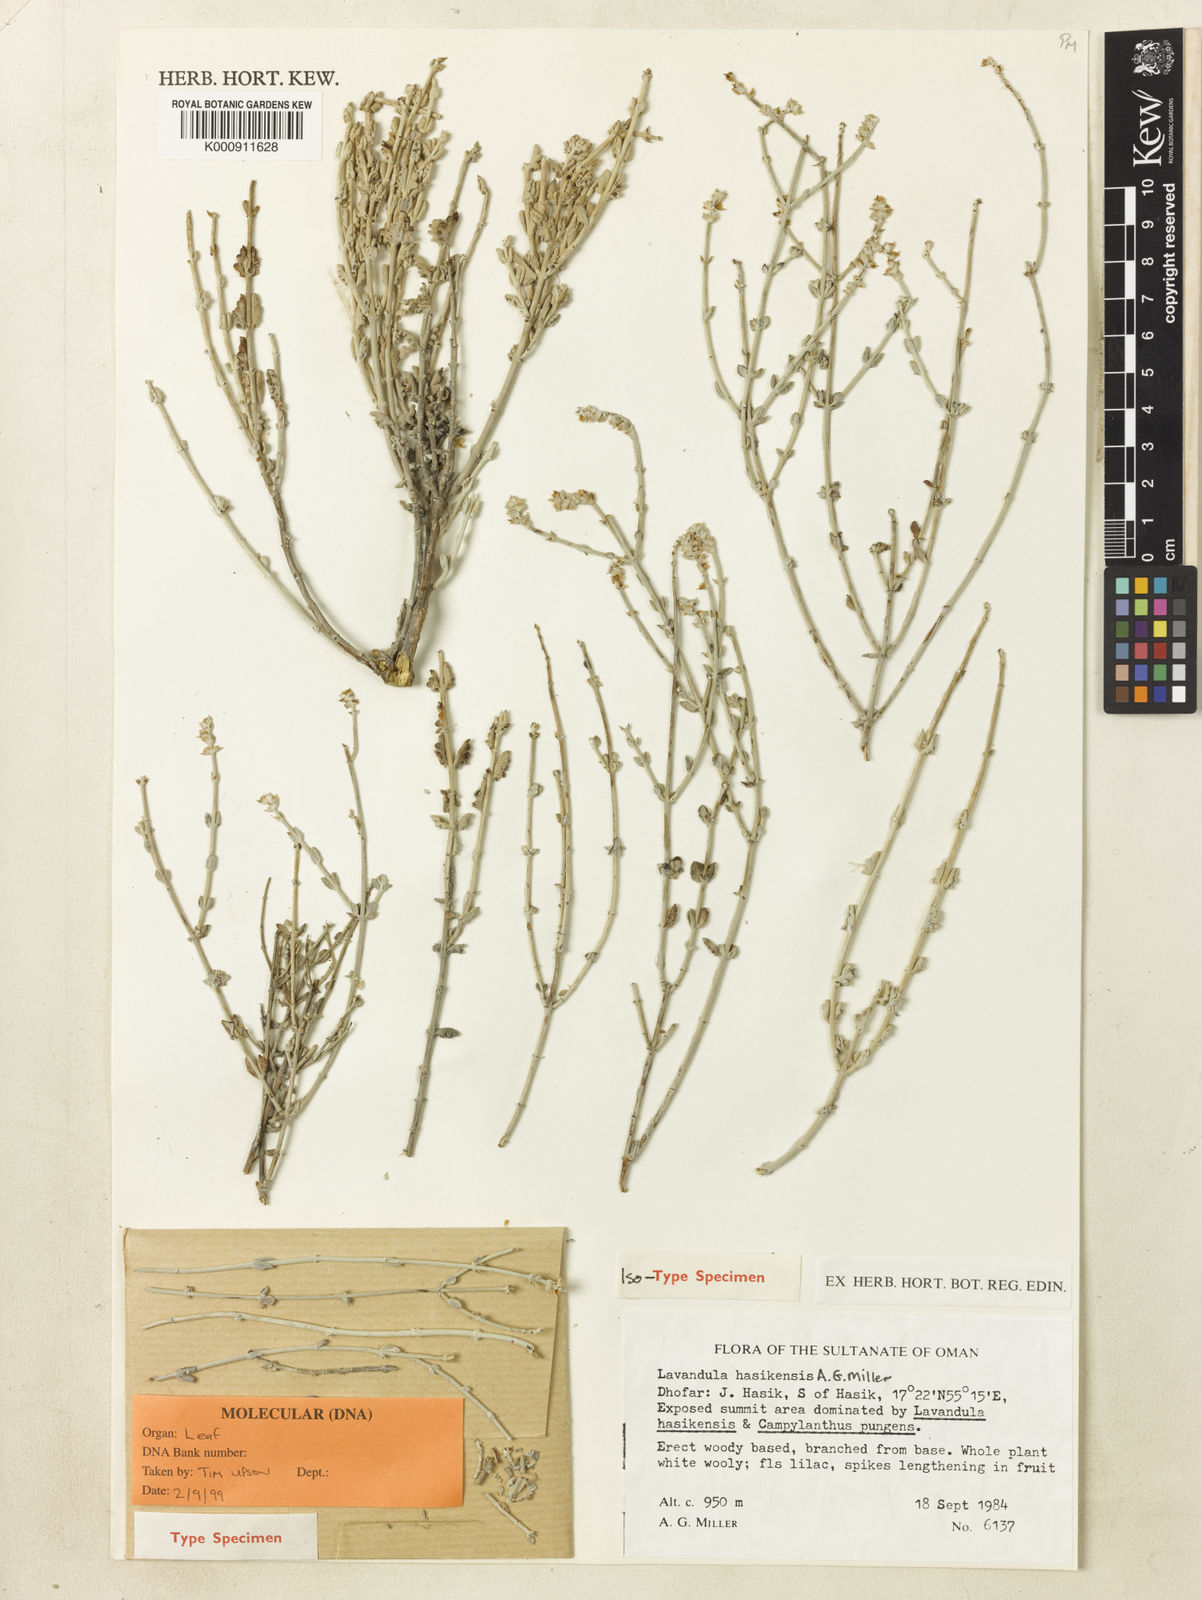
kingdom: Plantae
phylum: Tracheophyta
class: Magnoliopsida
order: Lamiales
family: Lamiaceae
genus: Lavandula
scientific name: Lavandula hasikensis
